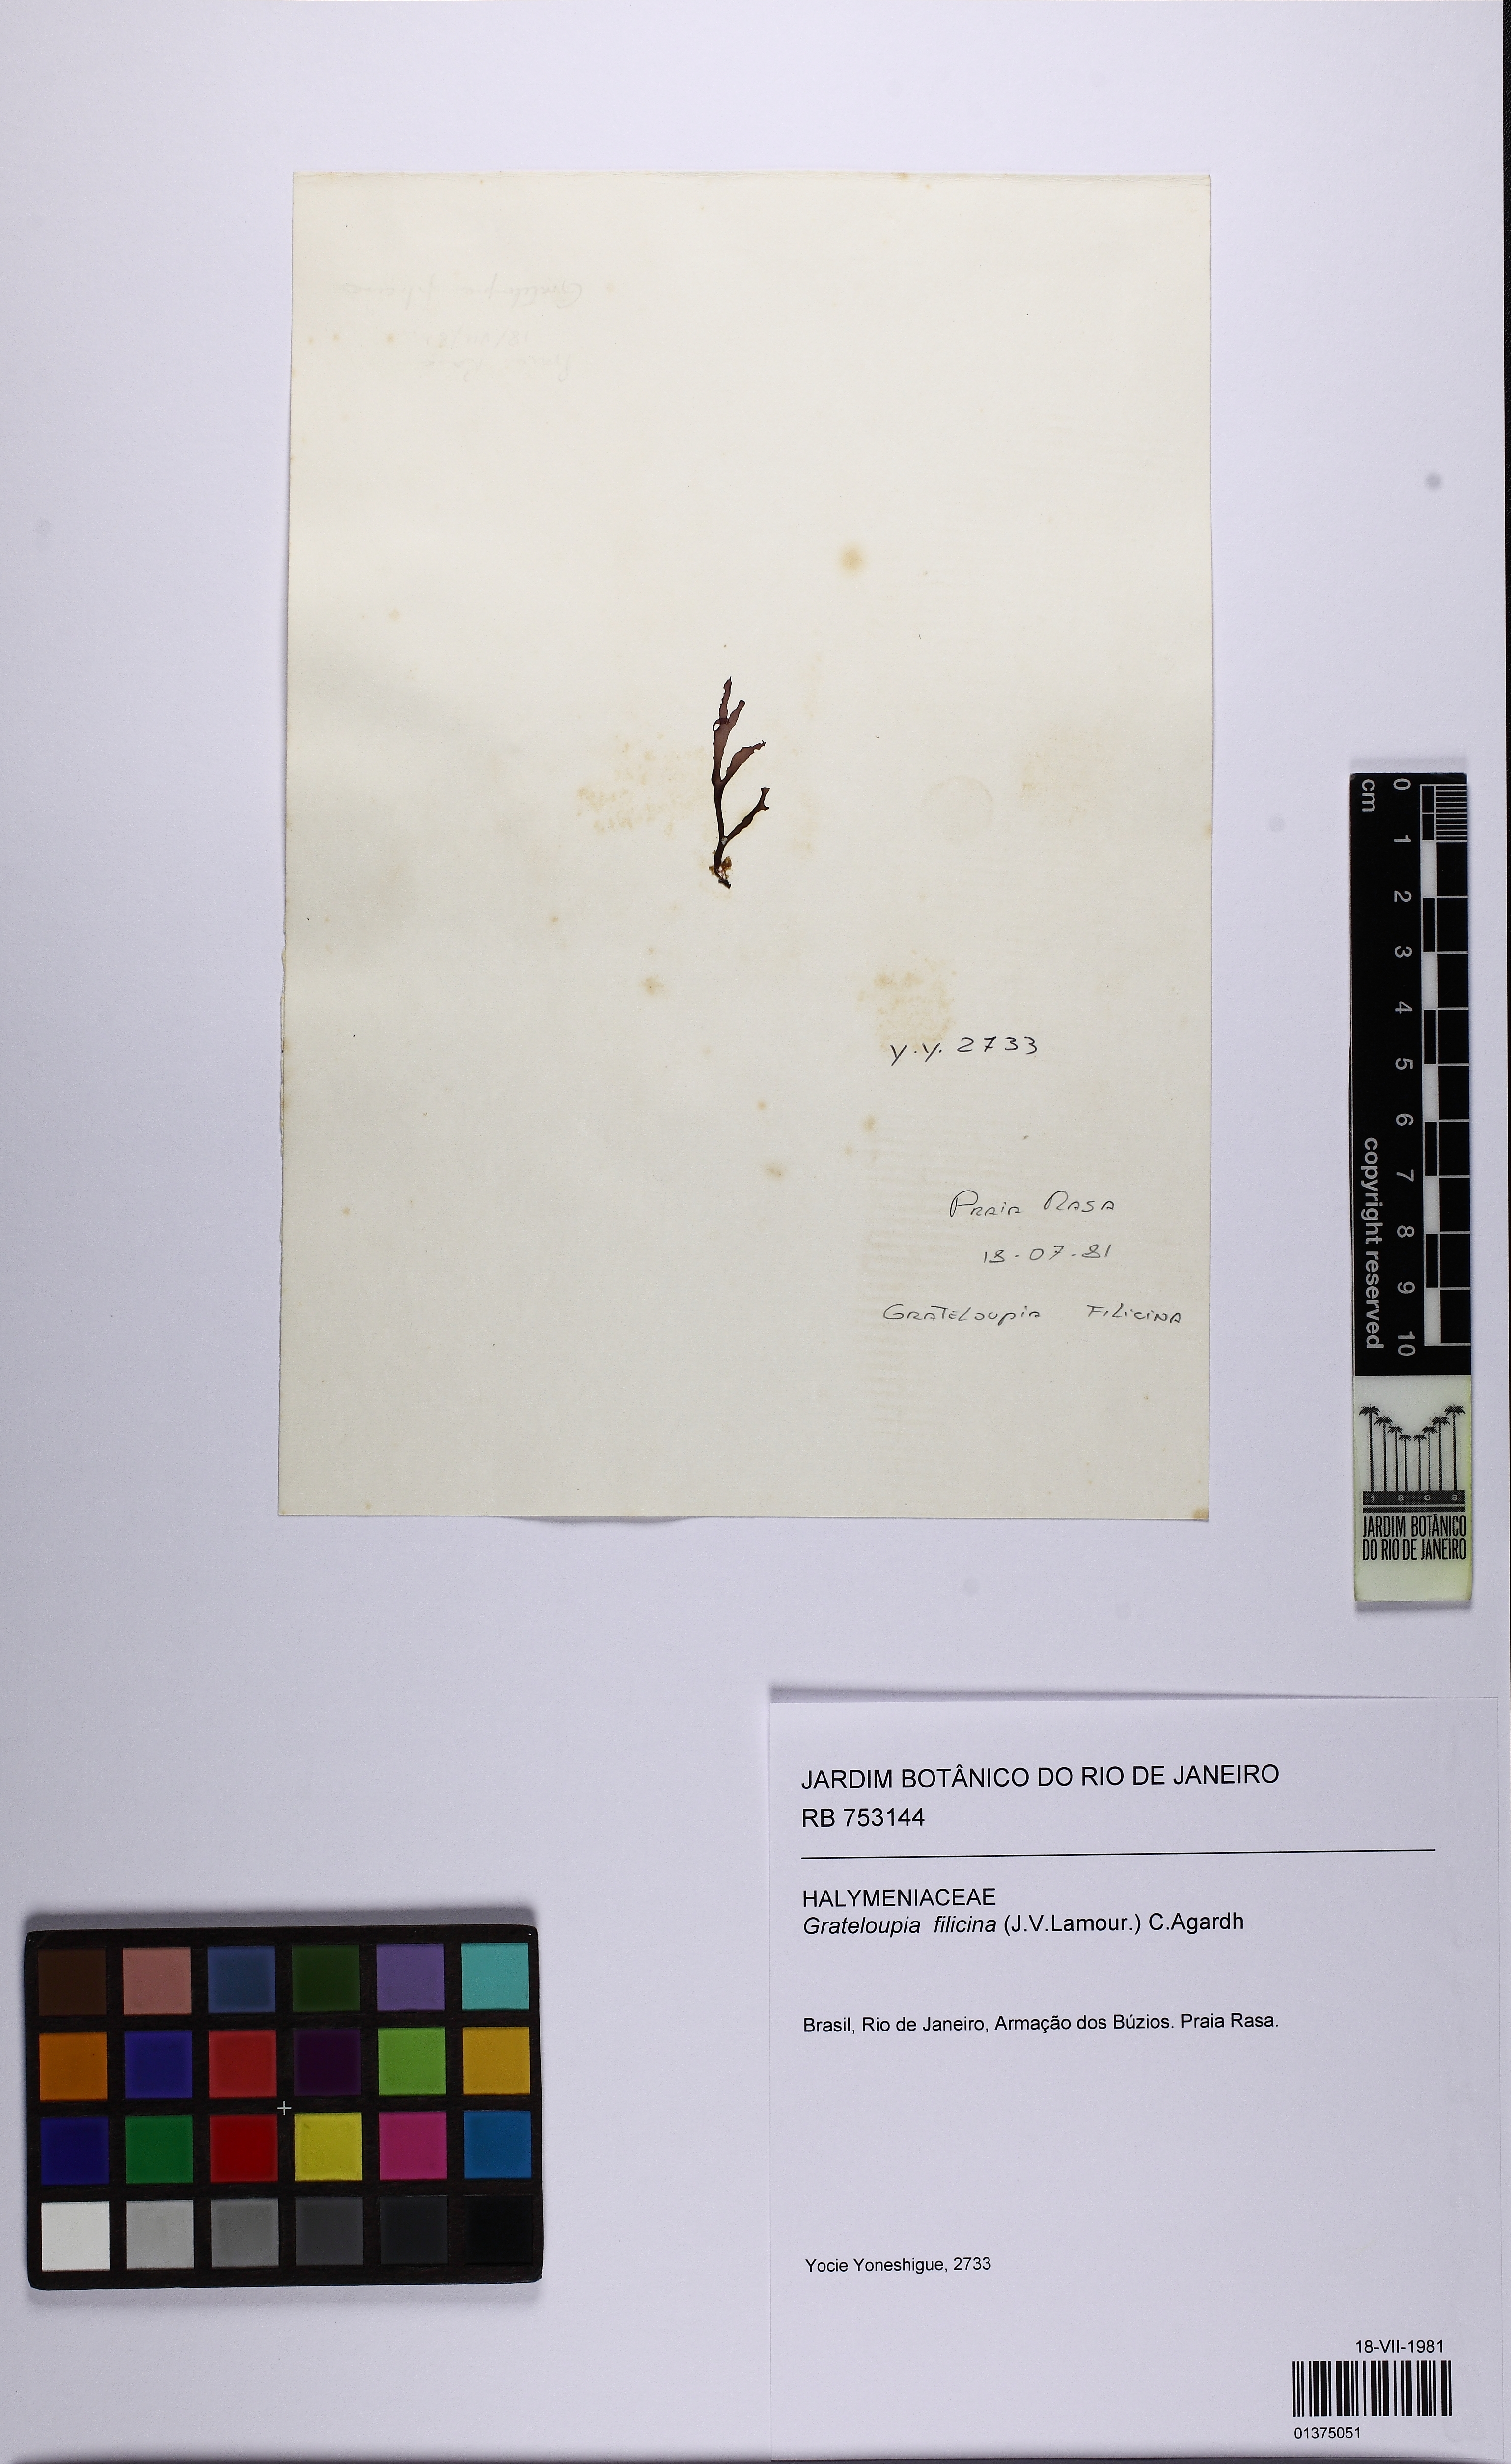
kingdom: Plantae
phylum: Rhodophyta
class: Florideophyceae
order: Halymeniales
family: Halymeniaceae
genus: Grateloupia
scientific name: Grateloupia filicina
